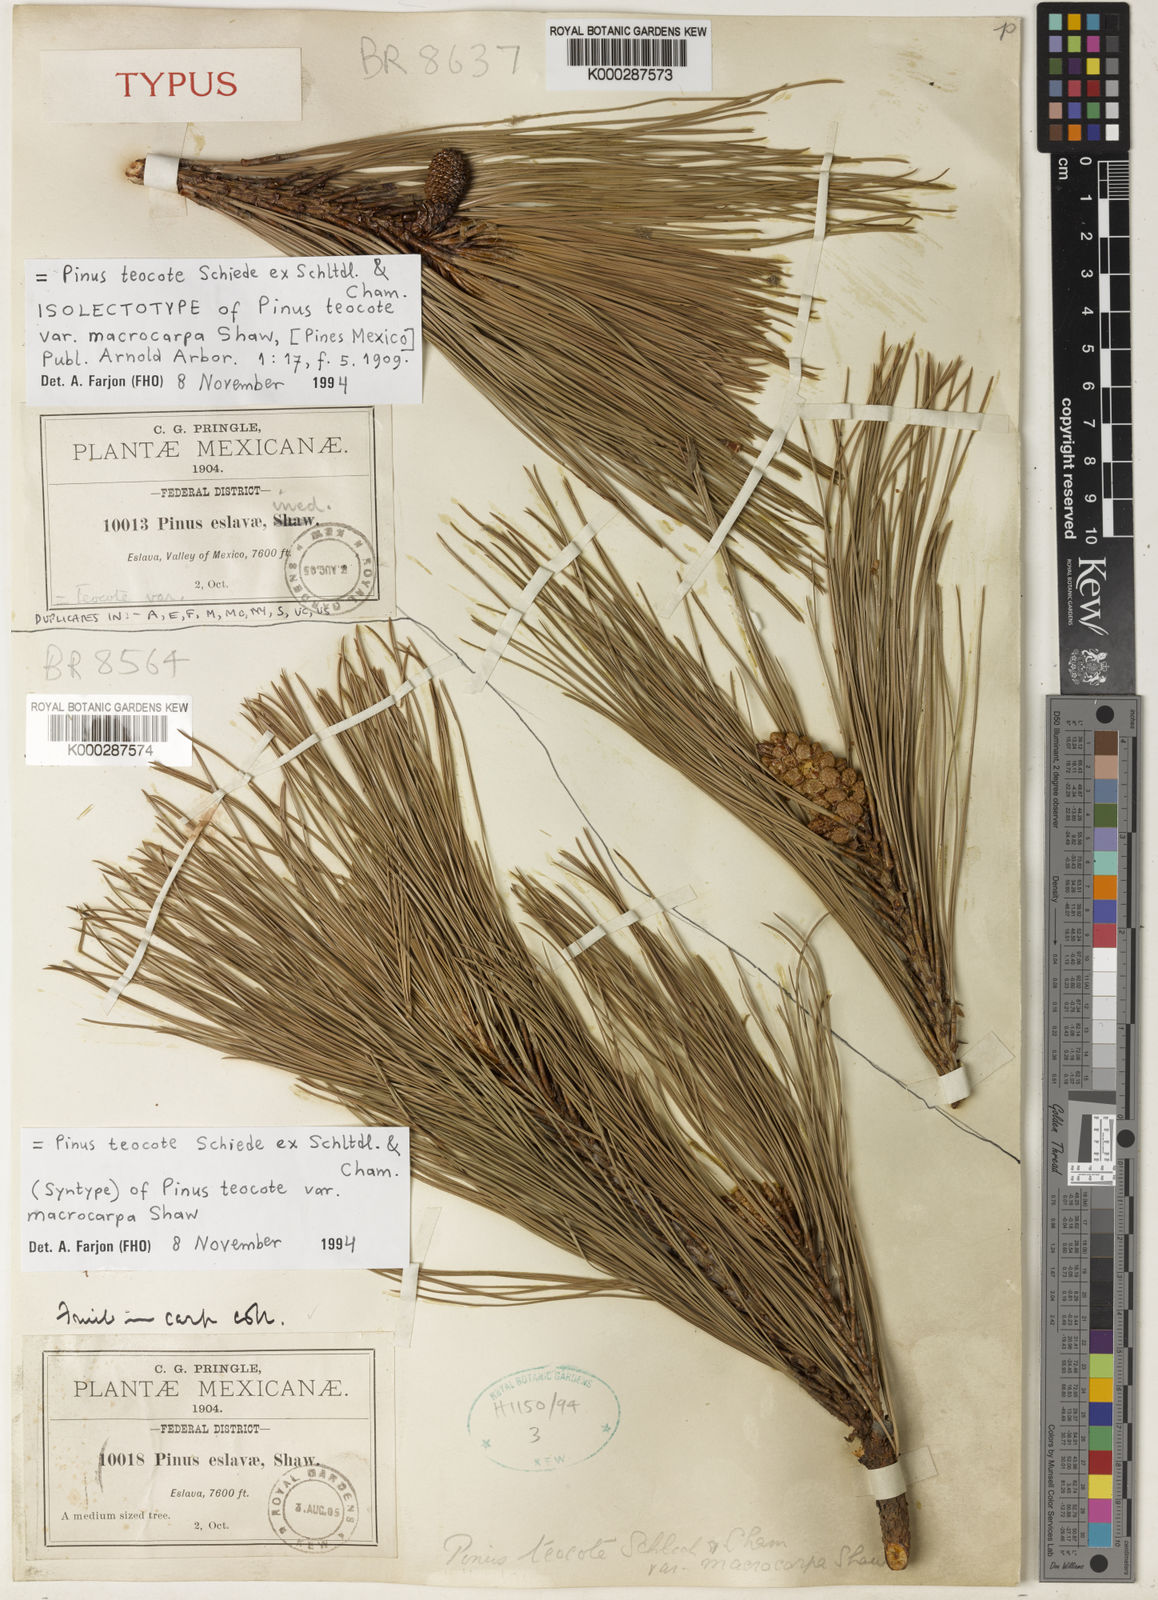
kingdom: Plantae
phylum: Tracheophyta
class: Pinopsida
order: Pinales
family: Pinaceae
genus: Pinus
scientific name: Pinus teocote
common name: Aztec pine
